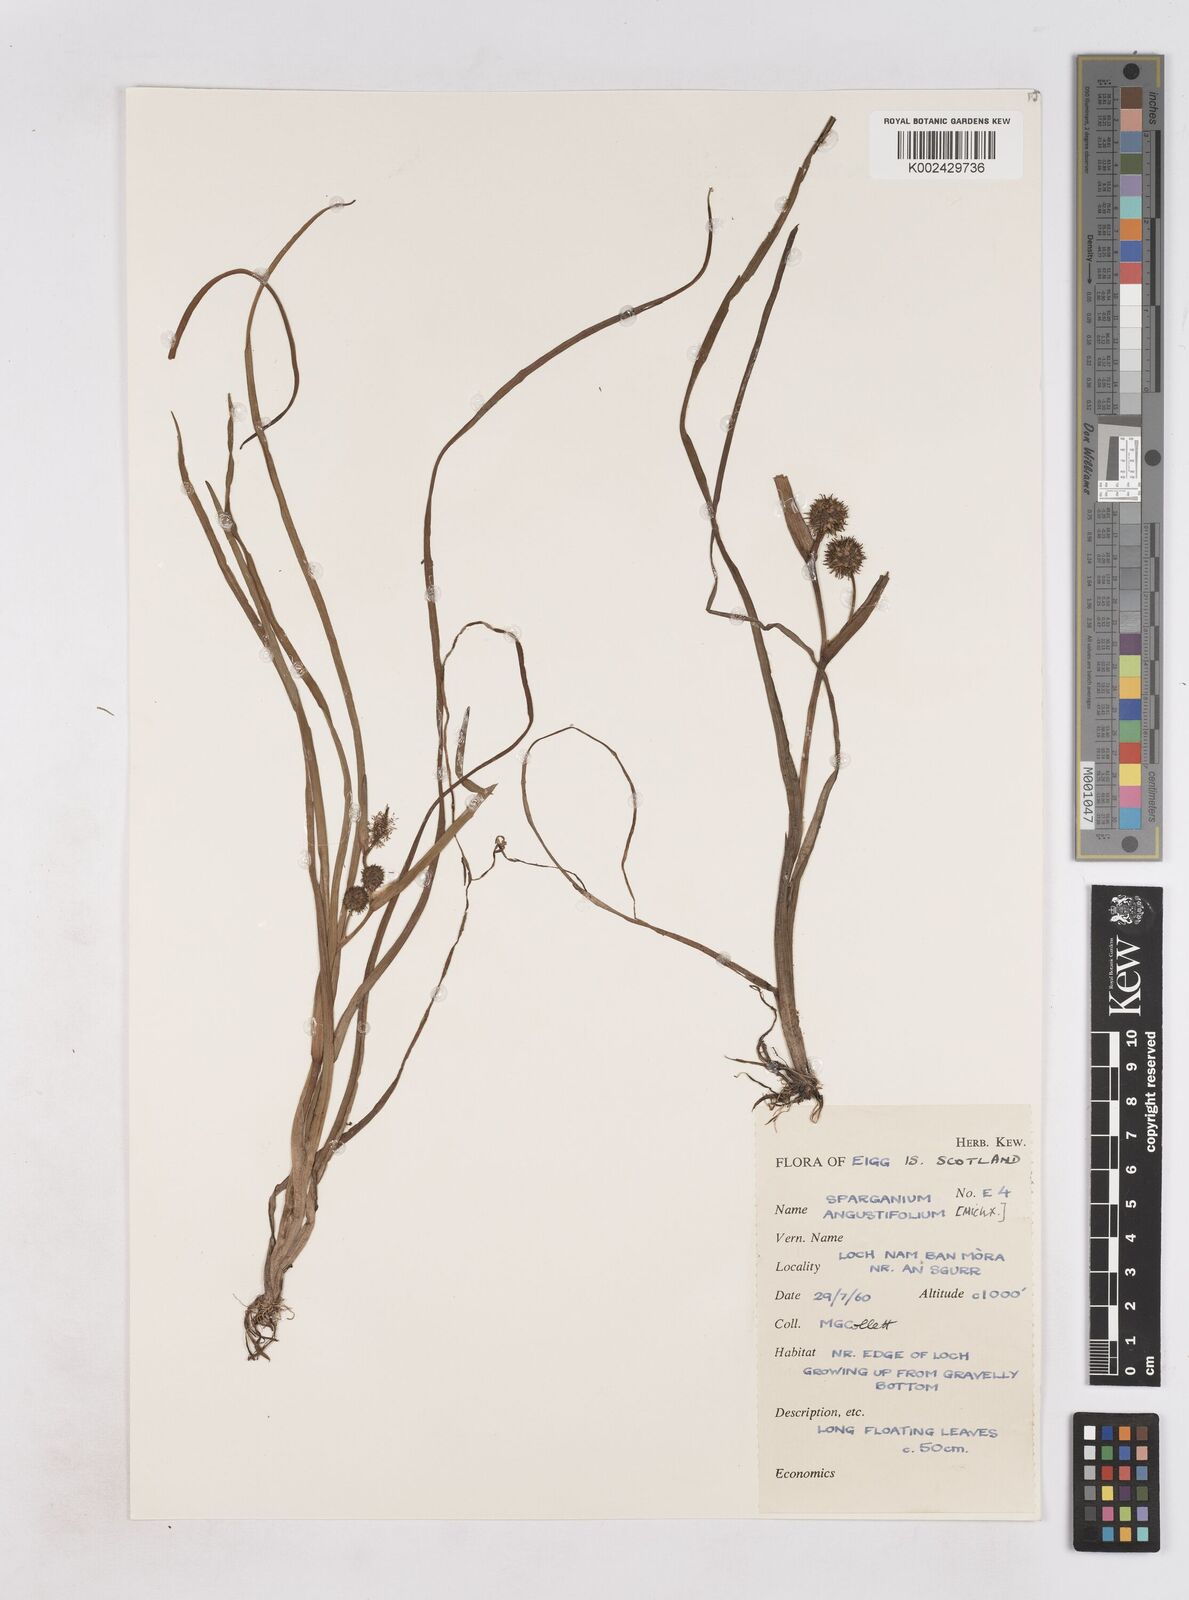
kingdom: Plantae
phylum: Tracheophyta
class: Liliopsida
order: Poales
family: Typhaceae
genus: Sparganium
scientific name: Sparganium angustifolium
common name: Floating bur-reed
